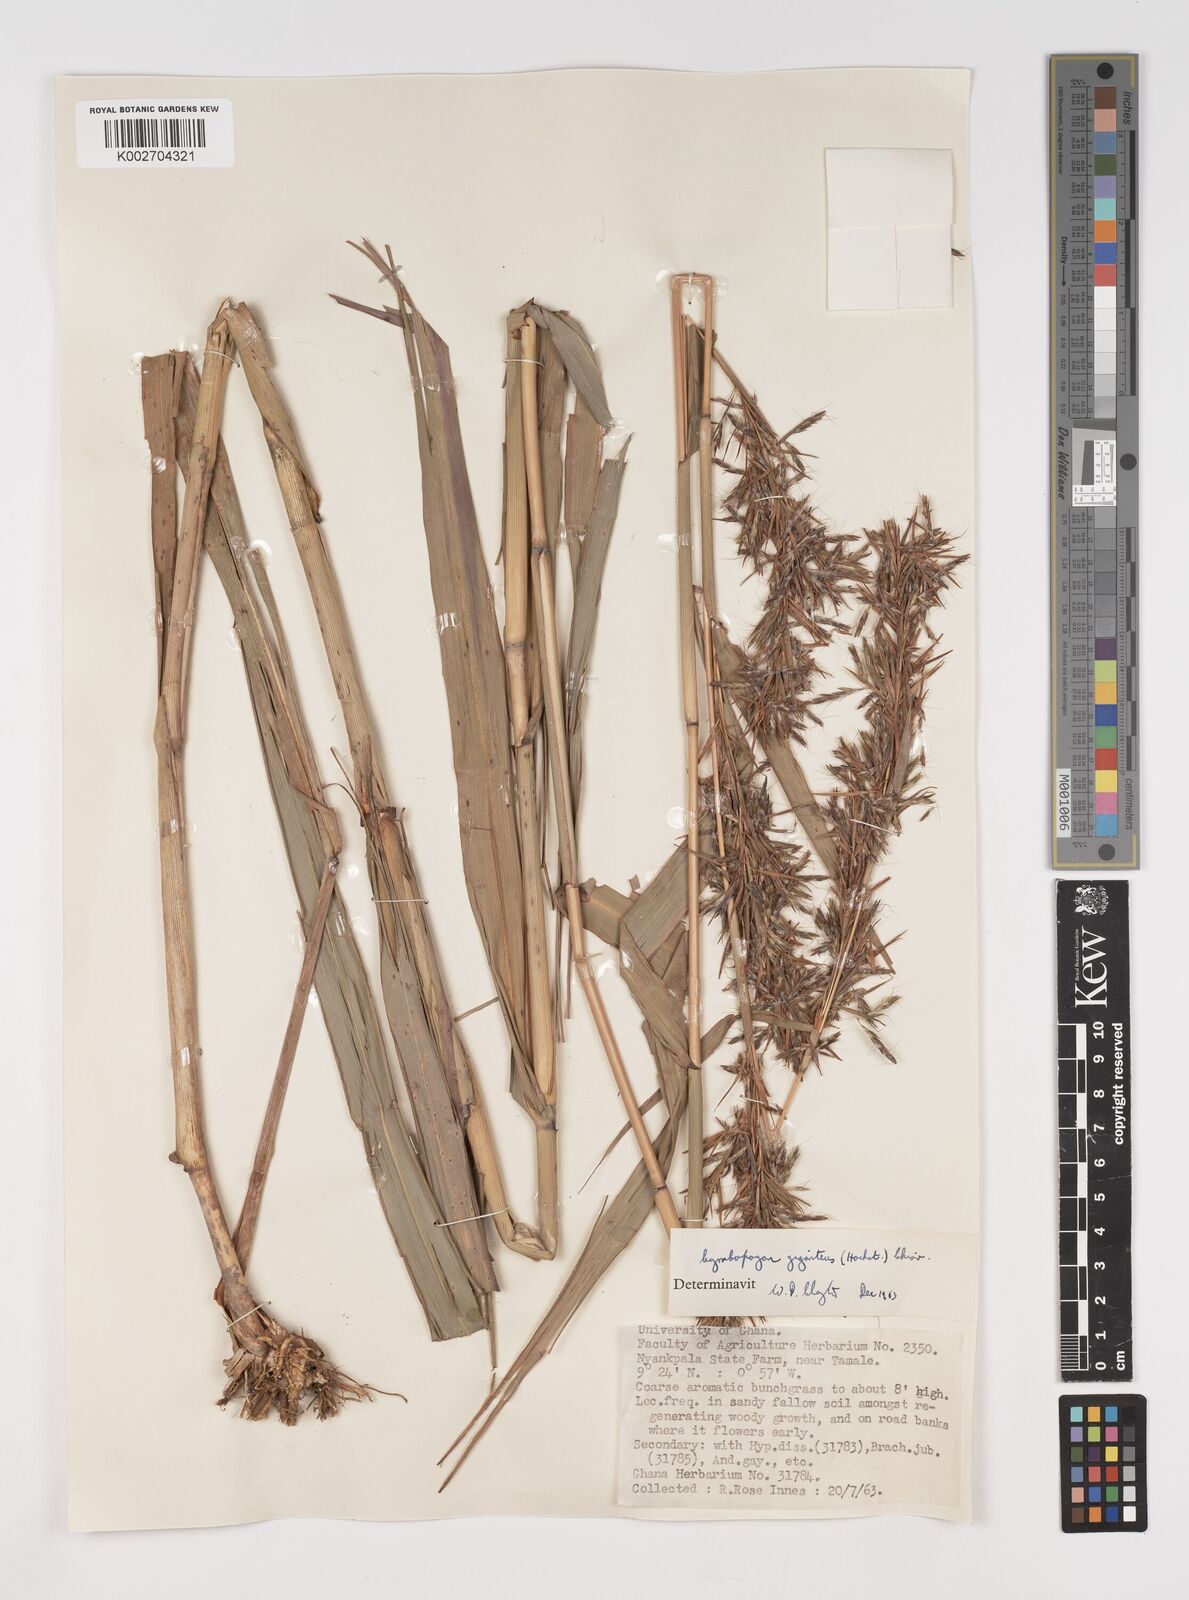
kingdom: Plantae
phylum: Tracheophyta
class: Liliopsida
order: Poales
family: Poaceae
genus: Cymbopogon
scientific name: Cymbopogon giganteus
